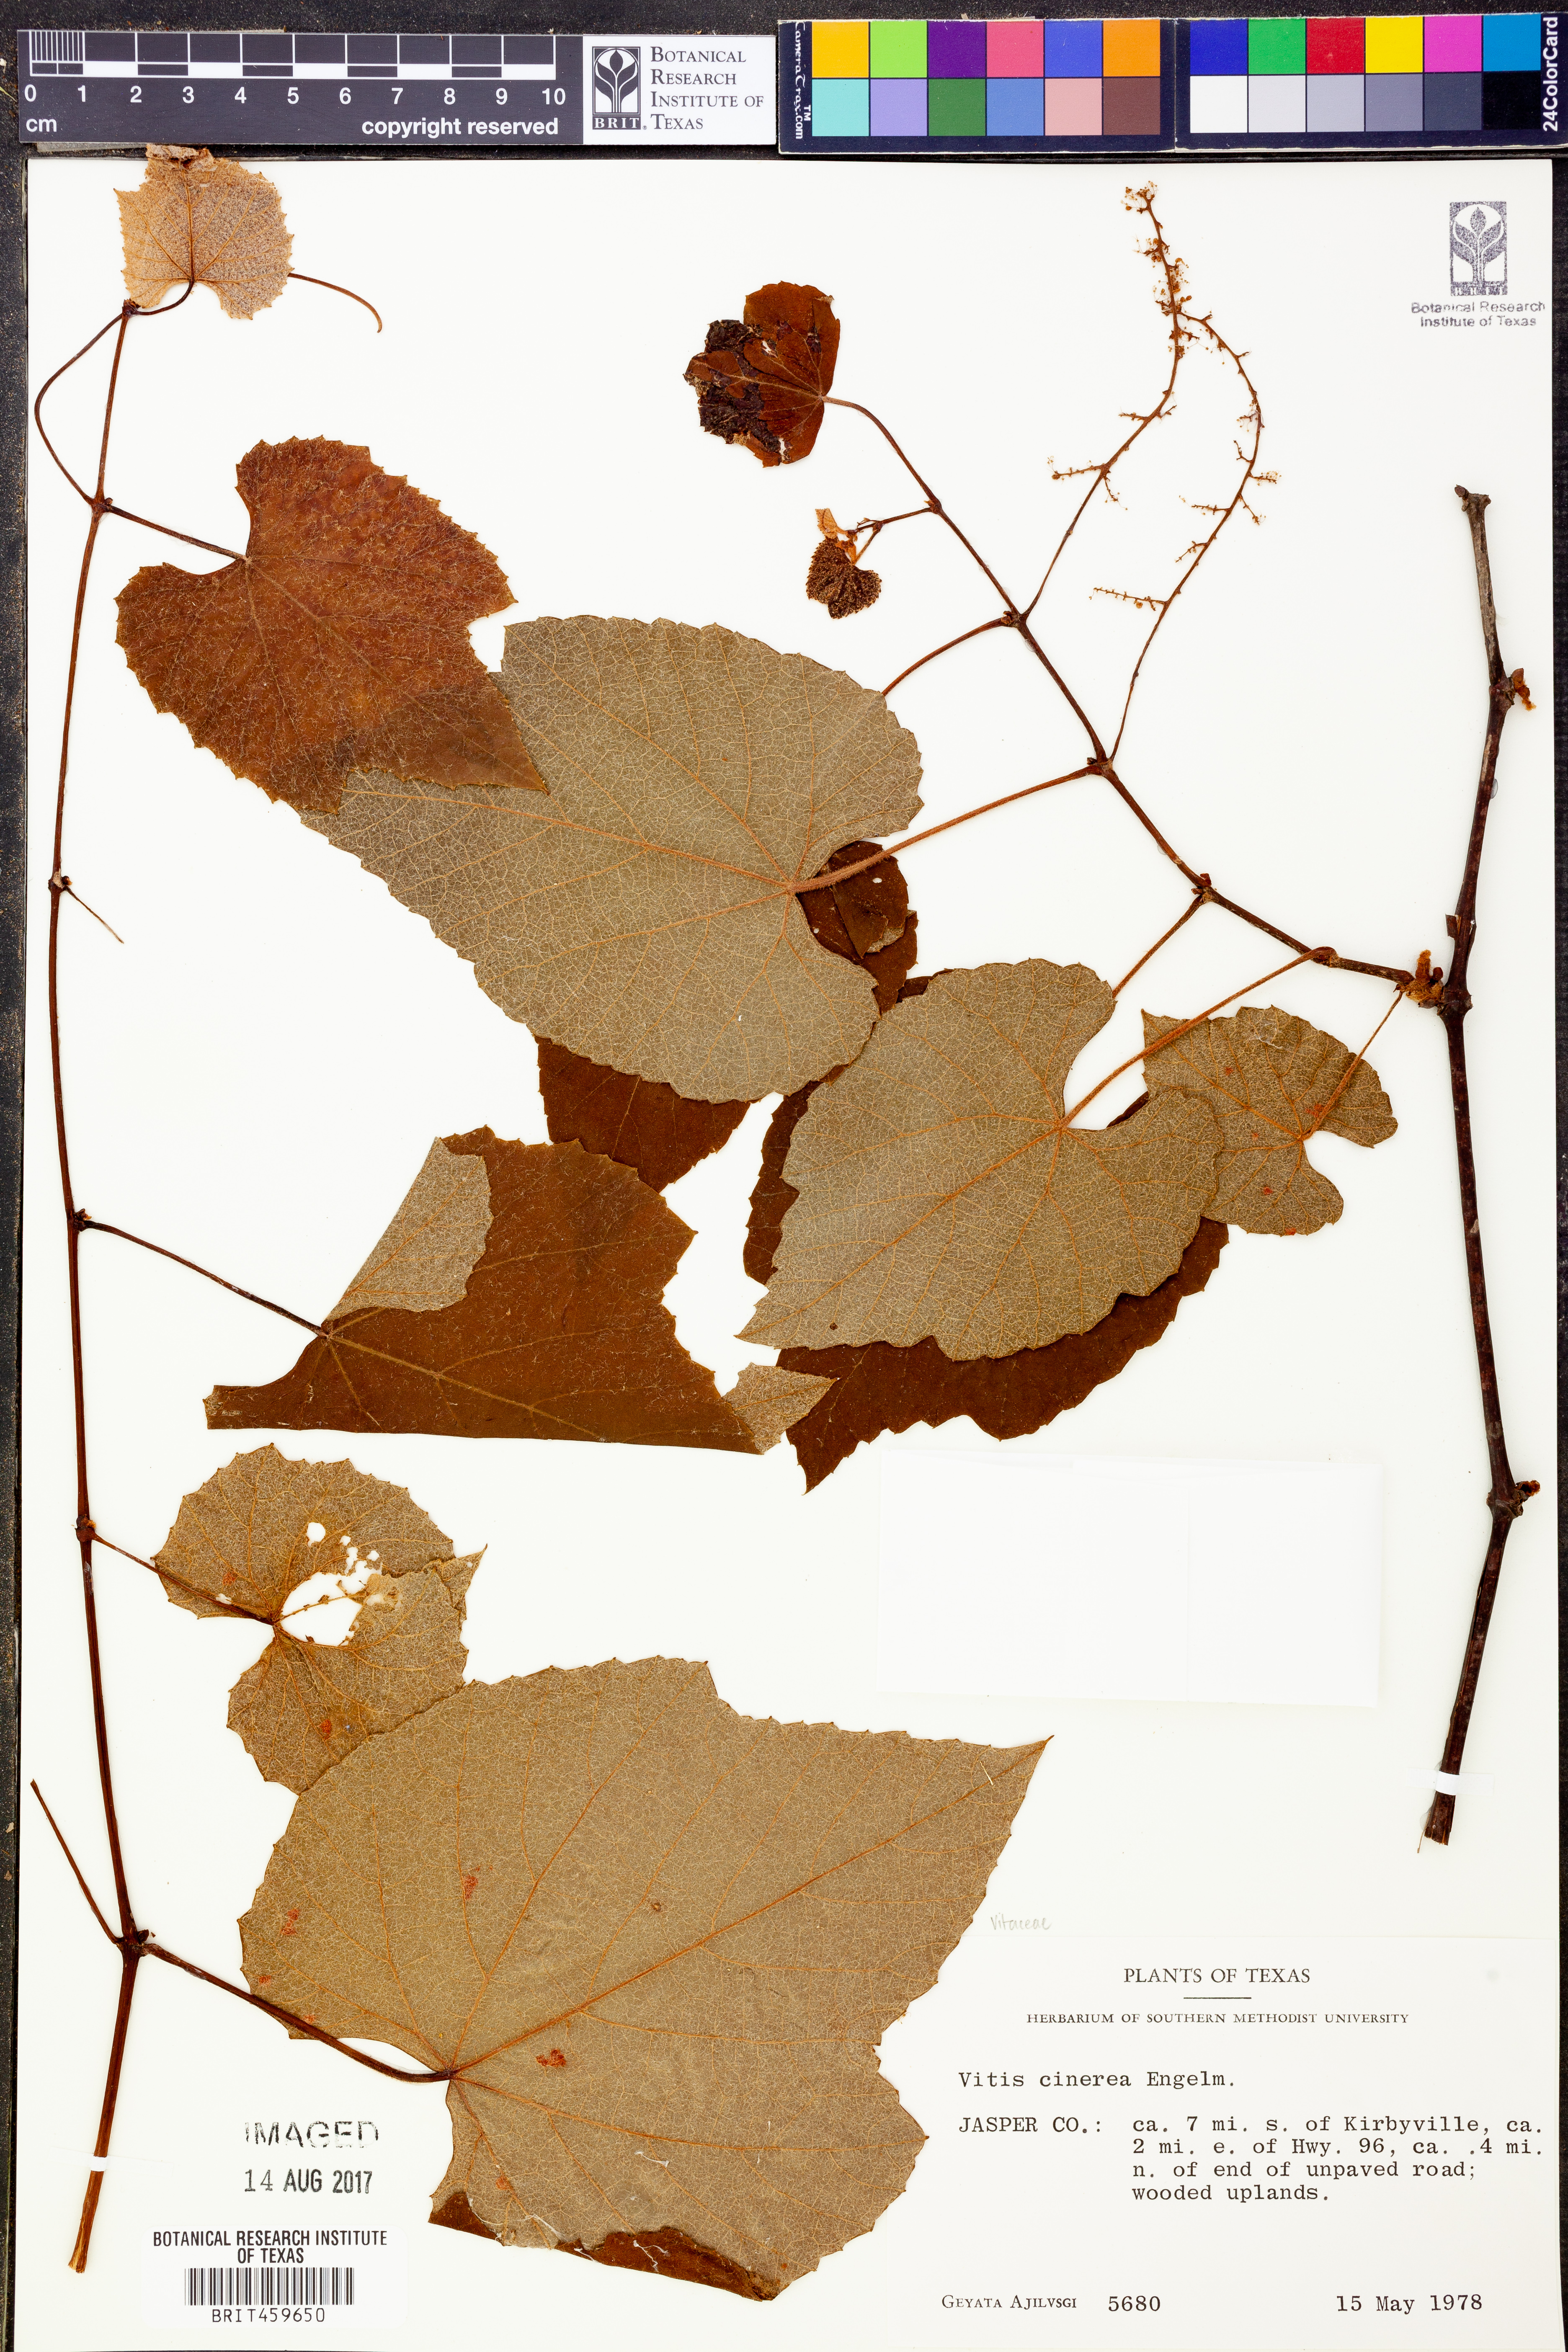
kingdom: Plantae
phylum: Tracheophyta
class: Magnoliopsida
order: Vitales
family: Vitaceae
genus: Vitis
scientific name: Vitis cinerea
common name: Ashy grape
